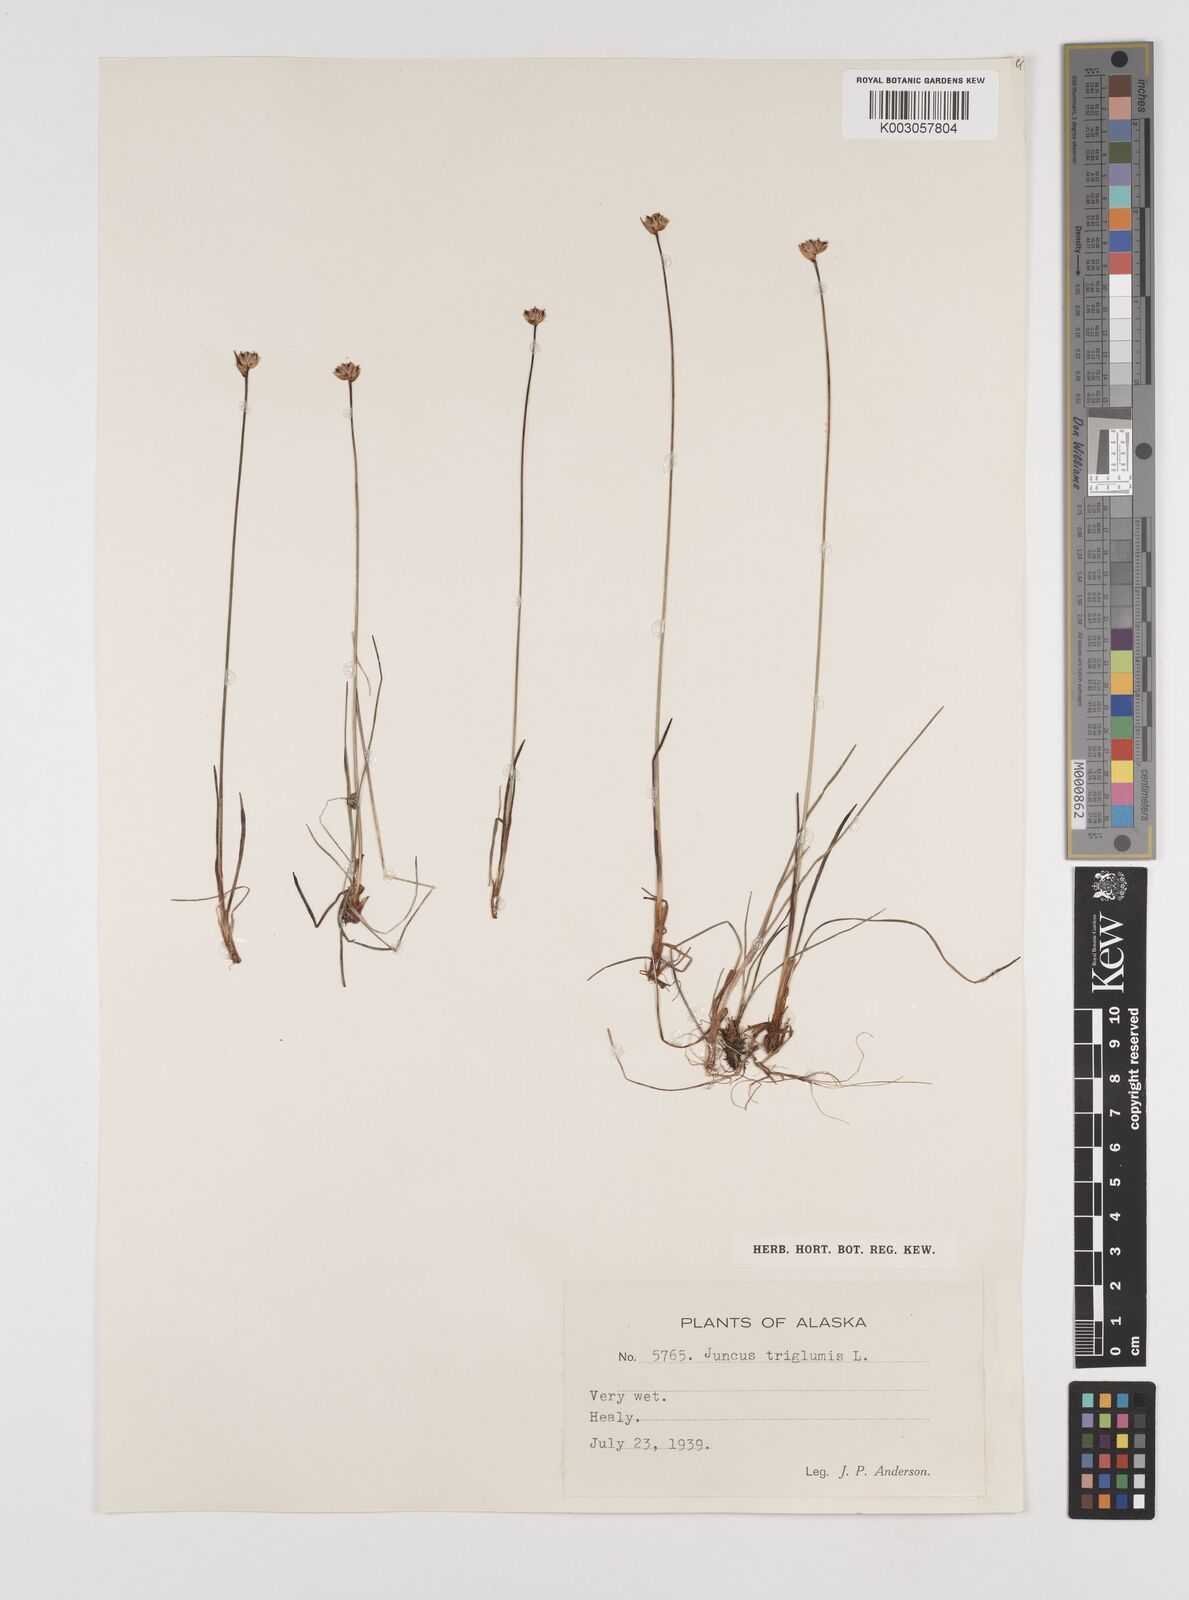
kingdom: Plantae
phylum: Tracheophyta
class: Liliopsida
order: Poales
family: Juncaceae
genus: Juncus
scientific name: Juncus triglumis
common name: Three-flowered rush
